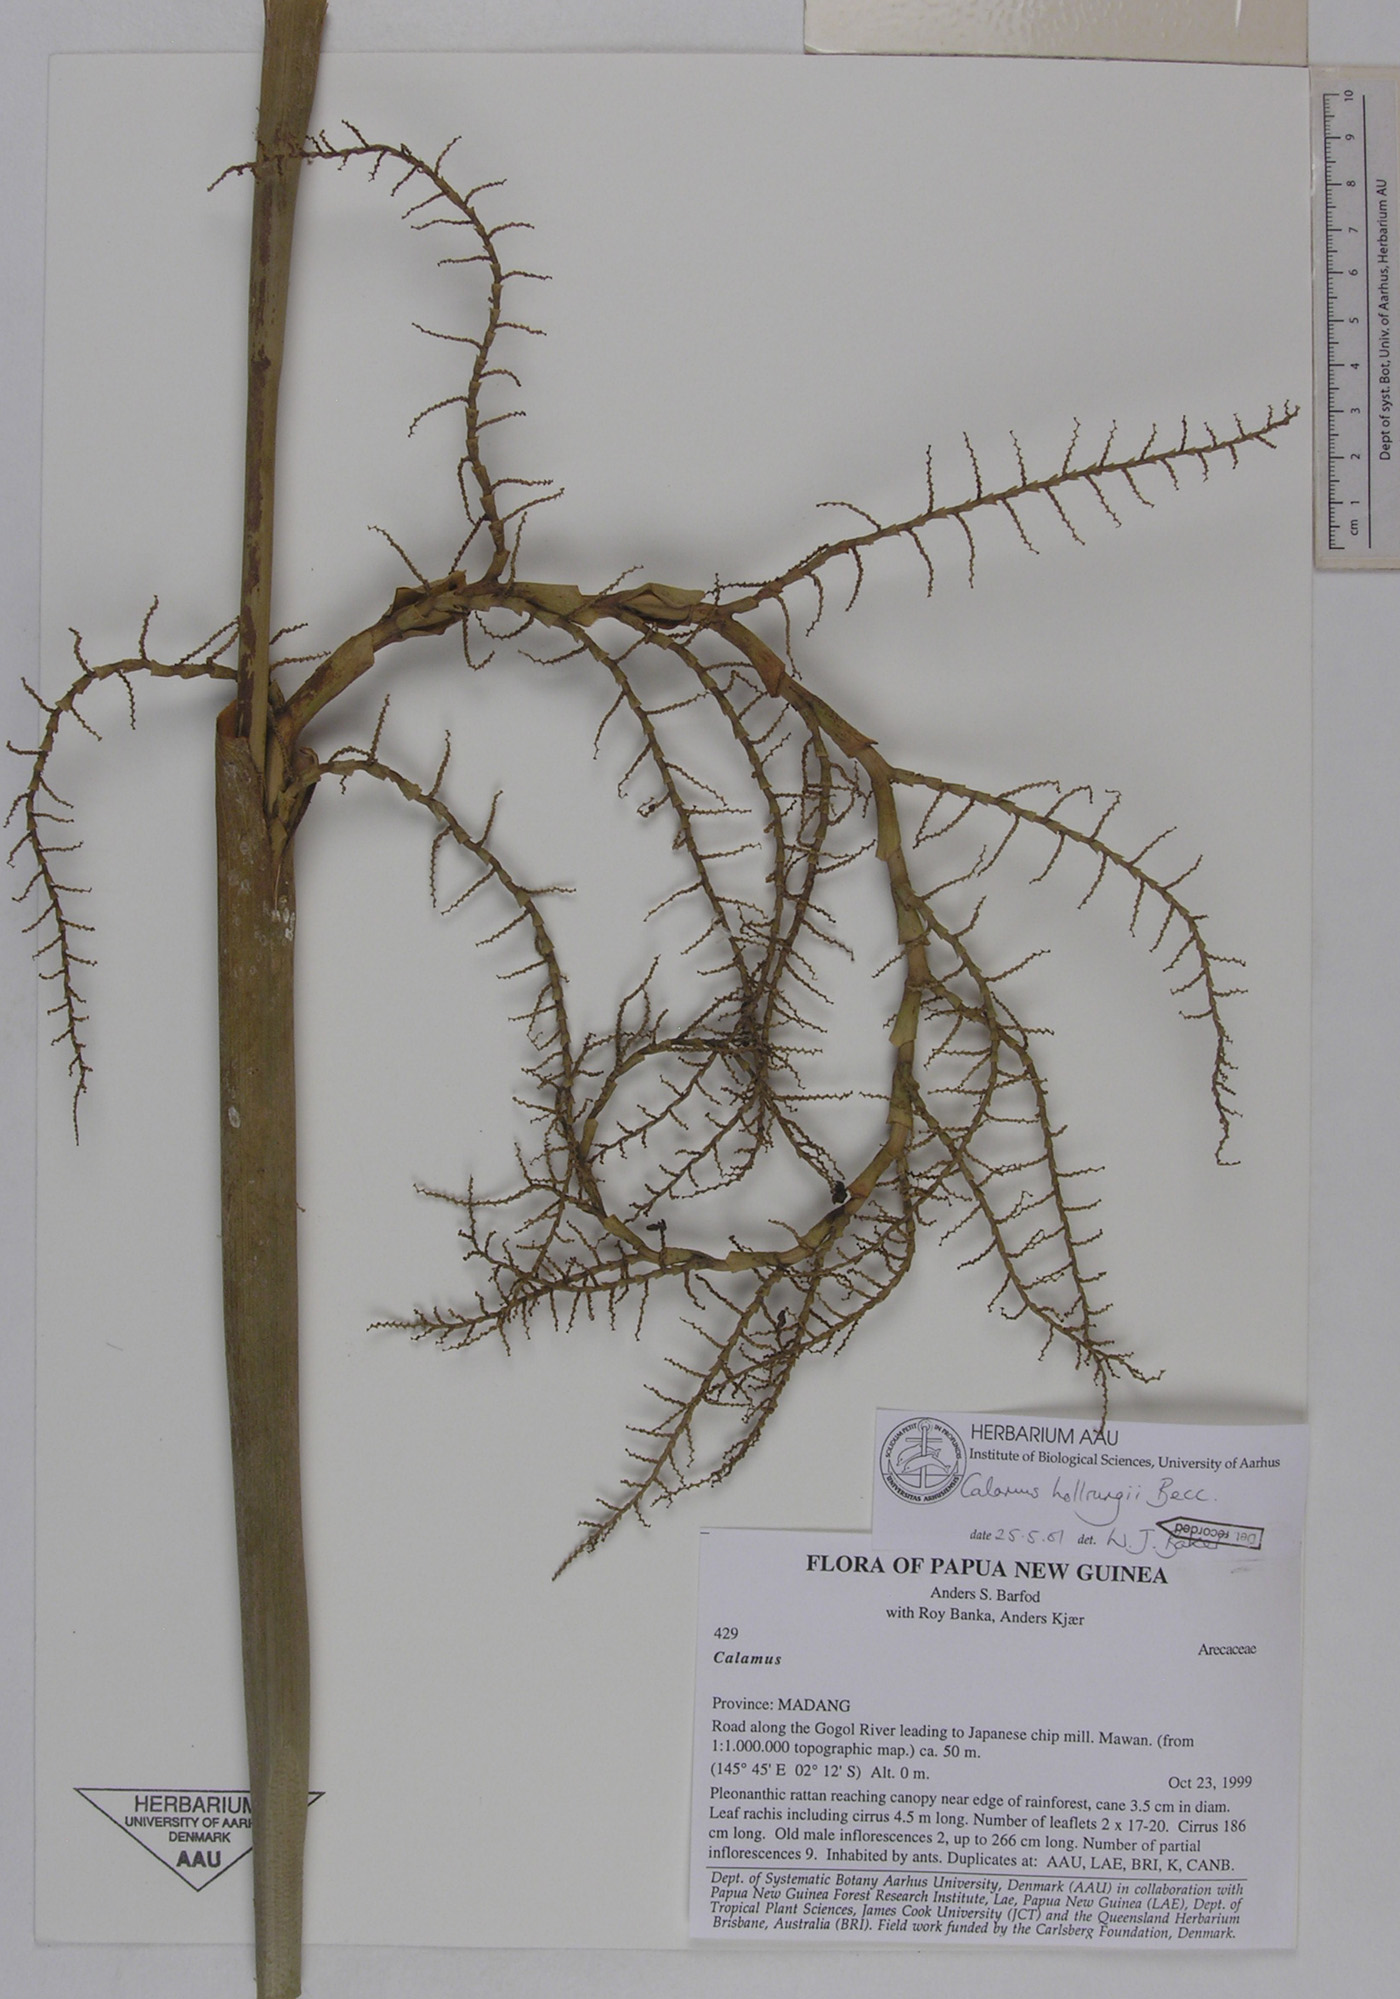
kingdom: Plantae
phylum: Tracheophyta
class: Liliopsida
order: Arecales
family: Arecaceae
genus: Calamus
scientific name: Calamus aruensis
